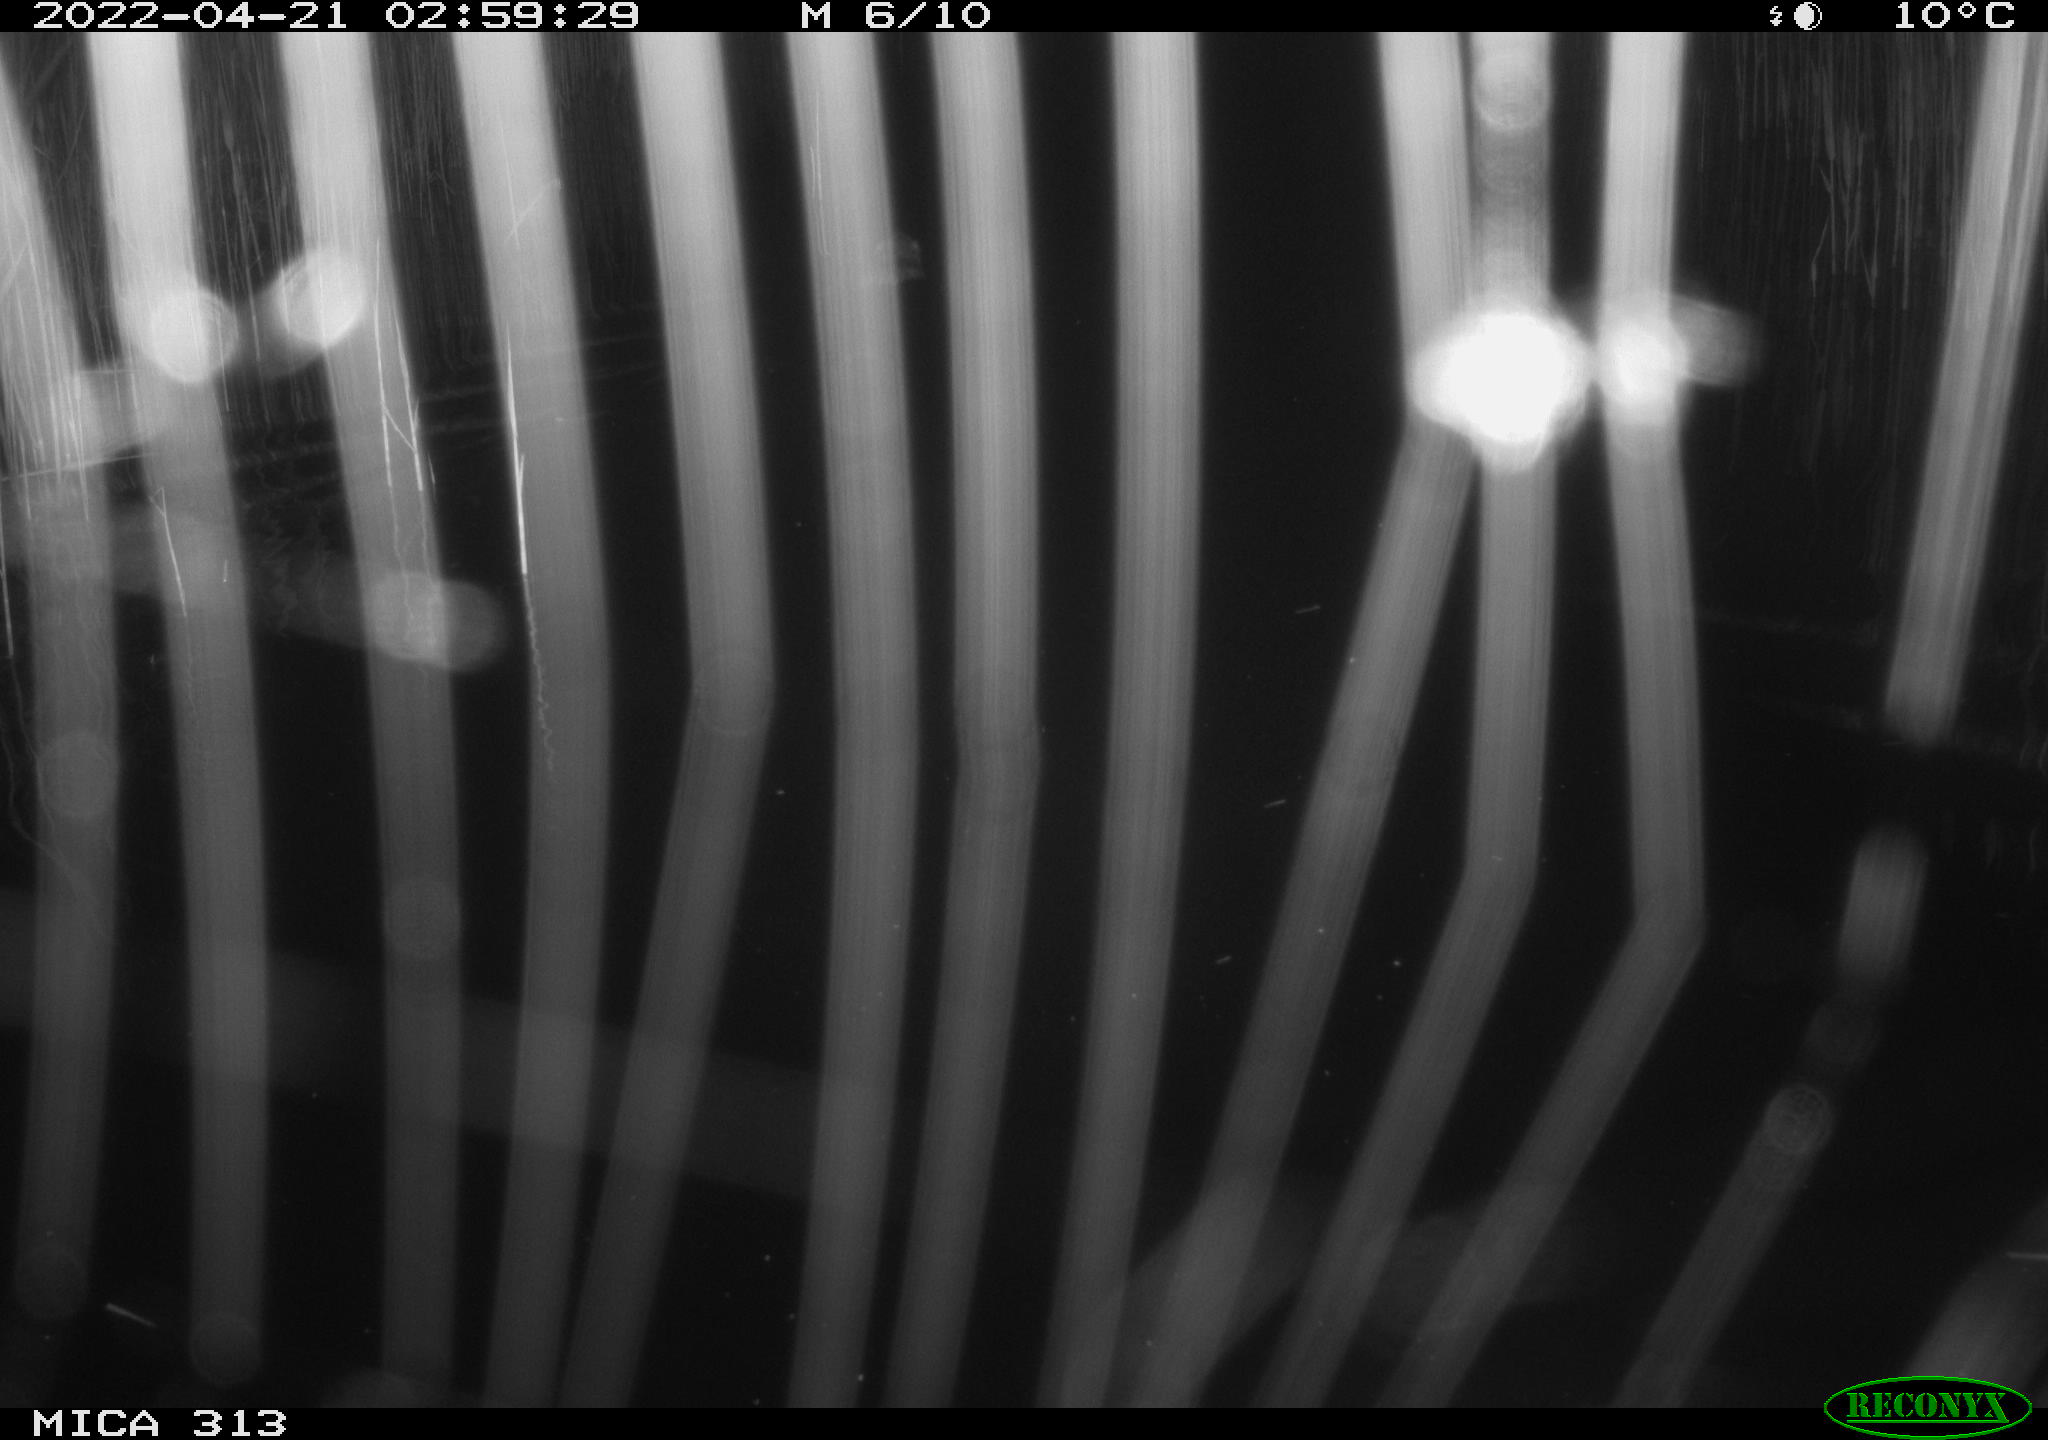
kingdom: Animalia
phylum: Chordata
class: Mammalia
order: Rodentia
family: Cricetidae
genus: Ondatra
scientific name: Ondatra zibethicus
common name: Muskrat
